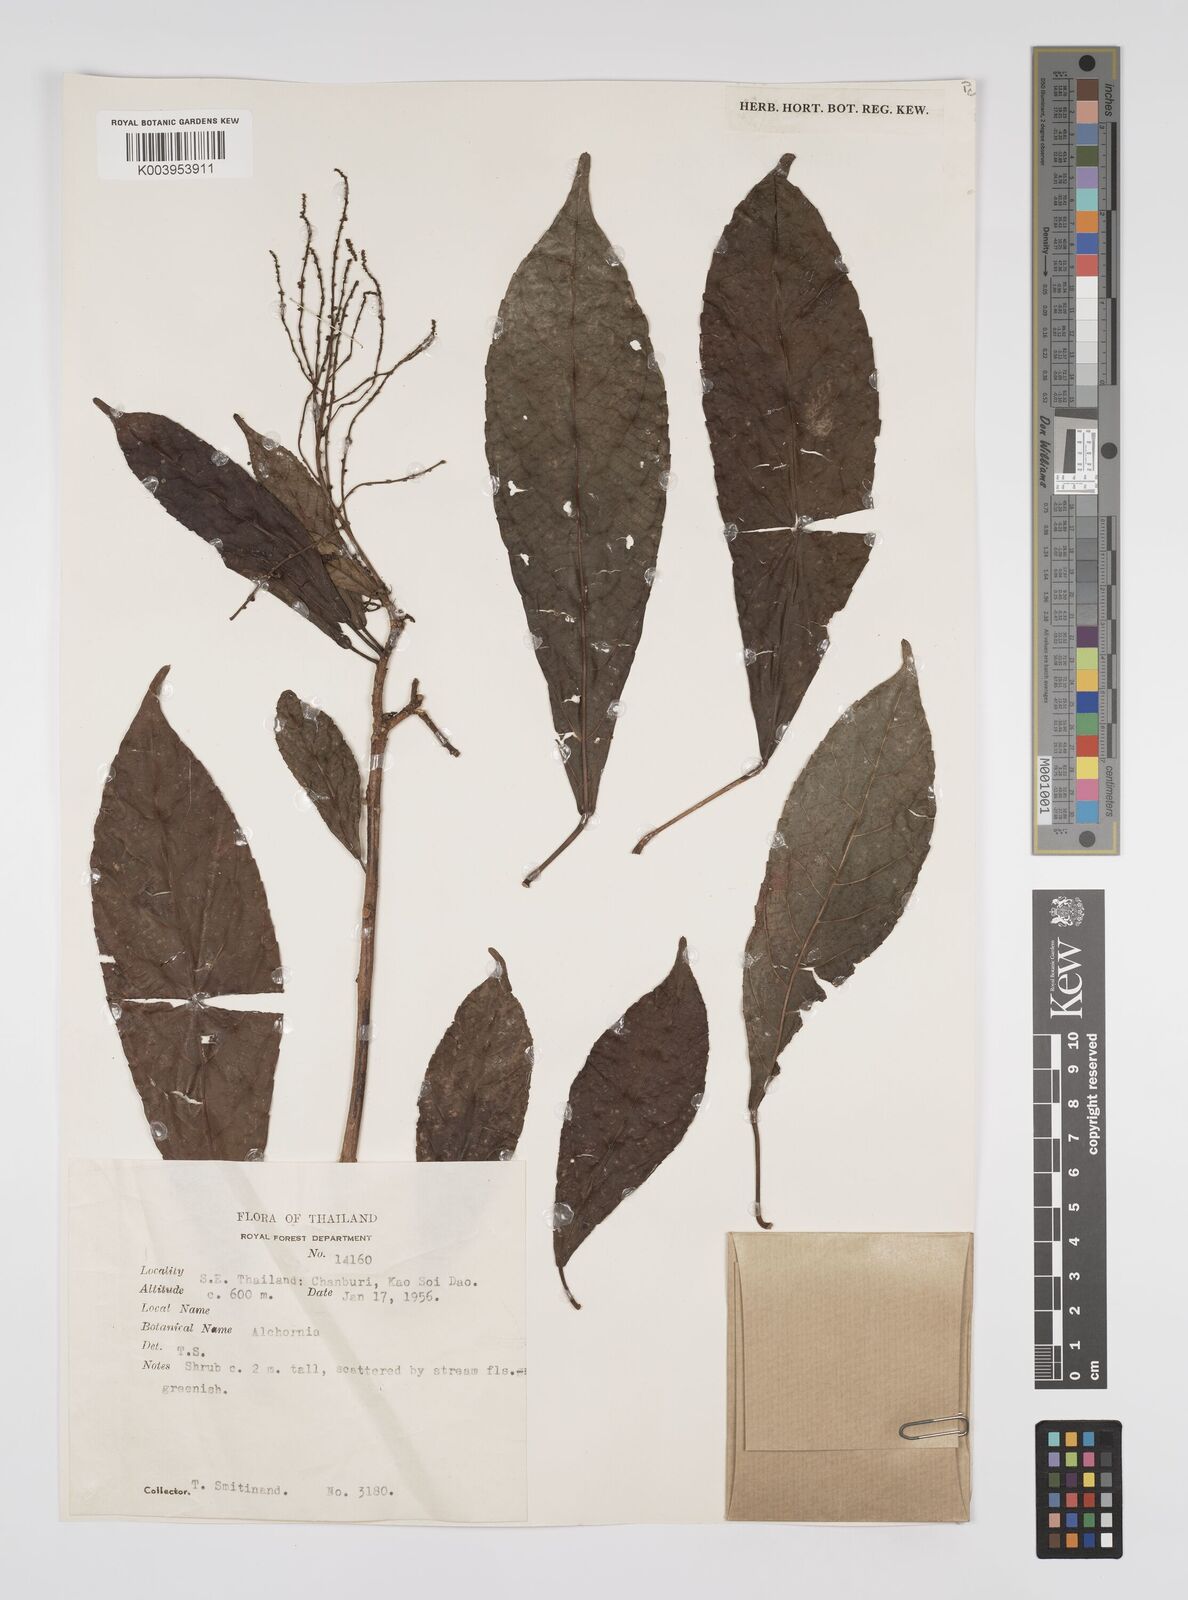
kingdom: Plantae
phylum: Tracheophyta
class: Magnoliopsida
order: Malpighiales
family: Euphorbiaceae
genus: Alchornea
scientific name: Alchornea rugosa
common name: Alchorntree
